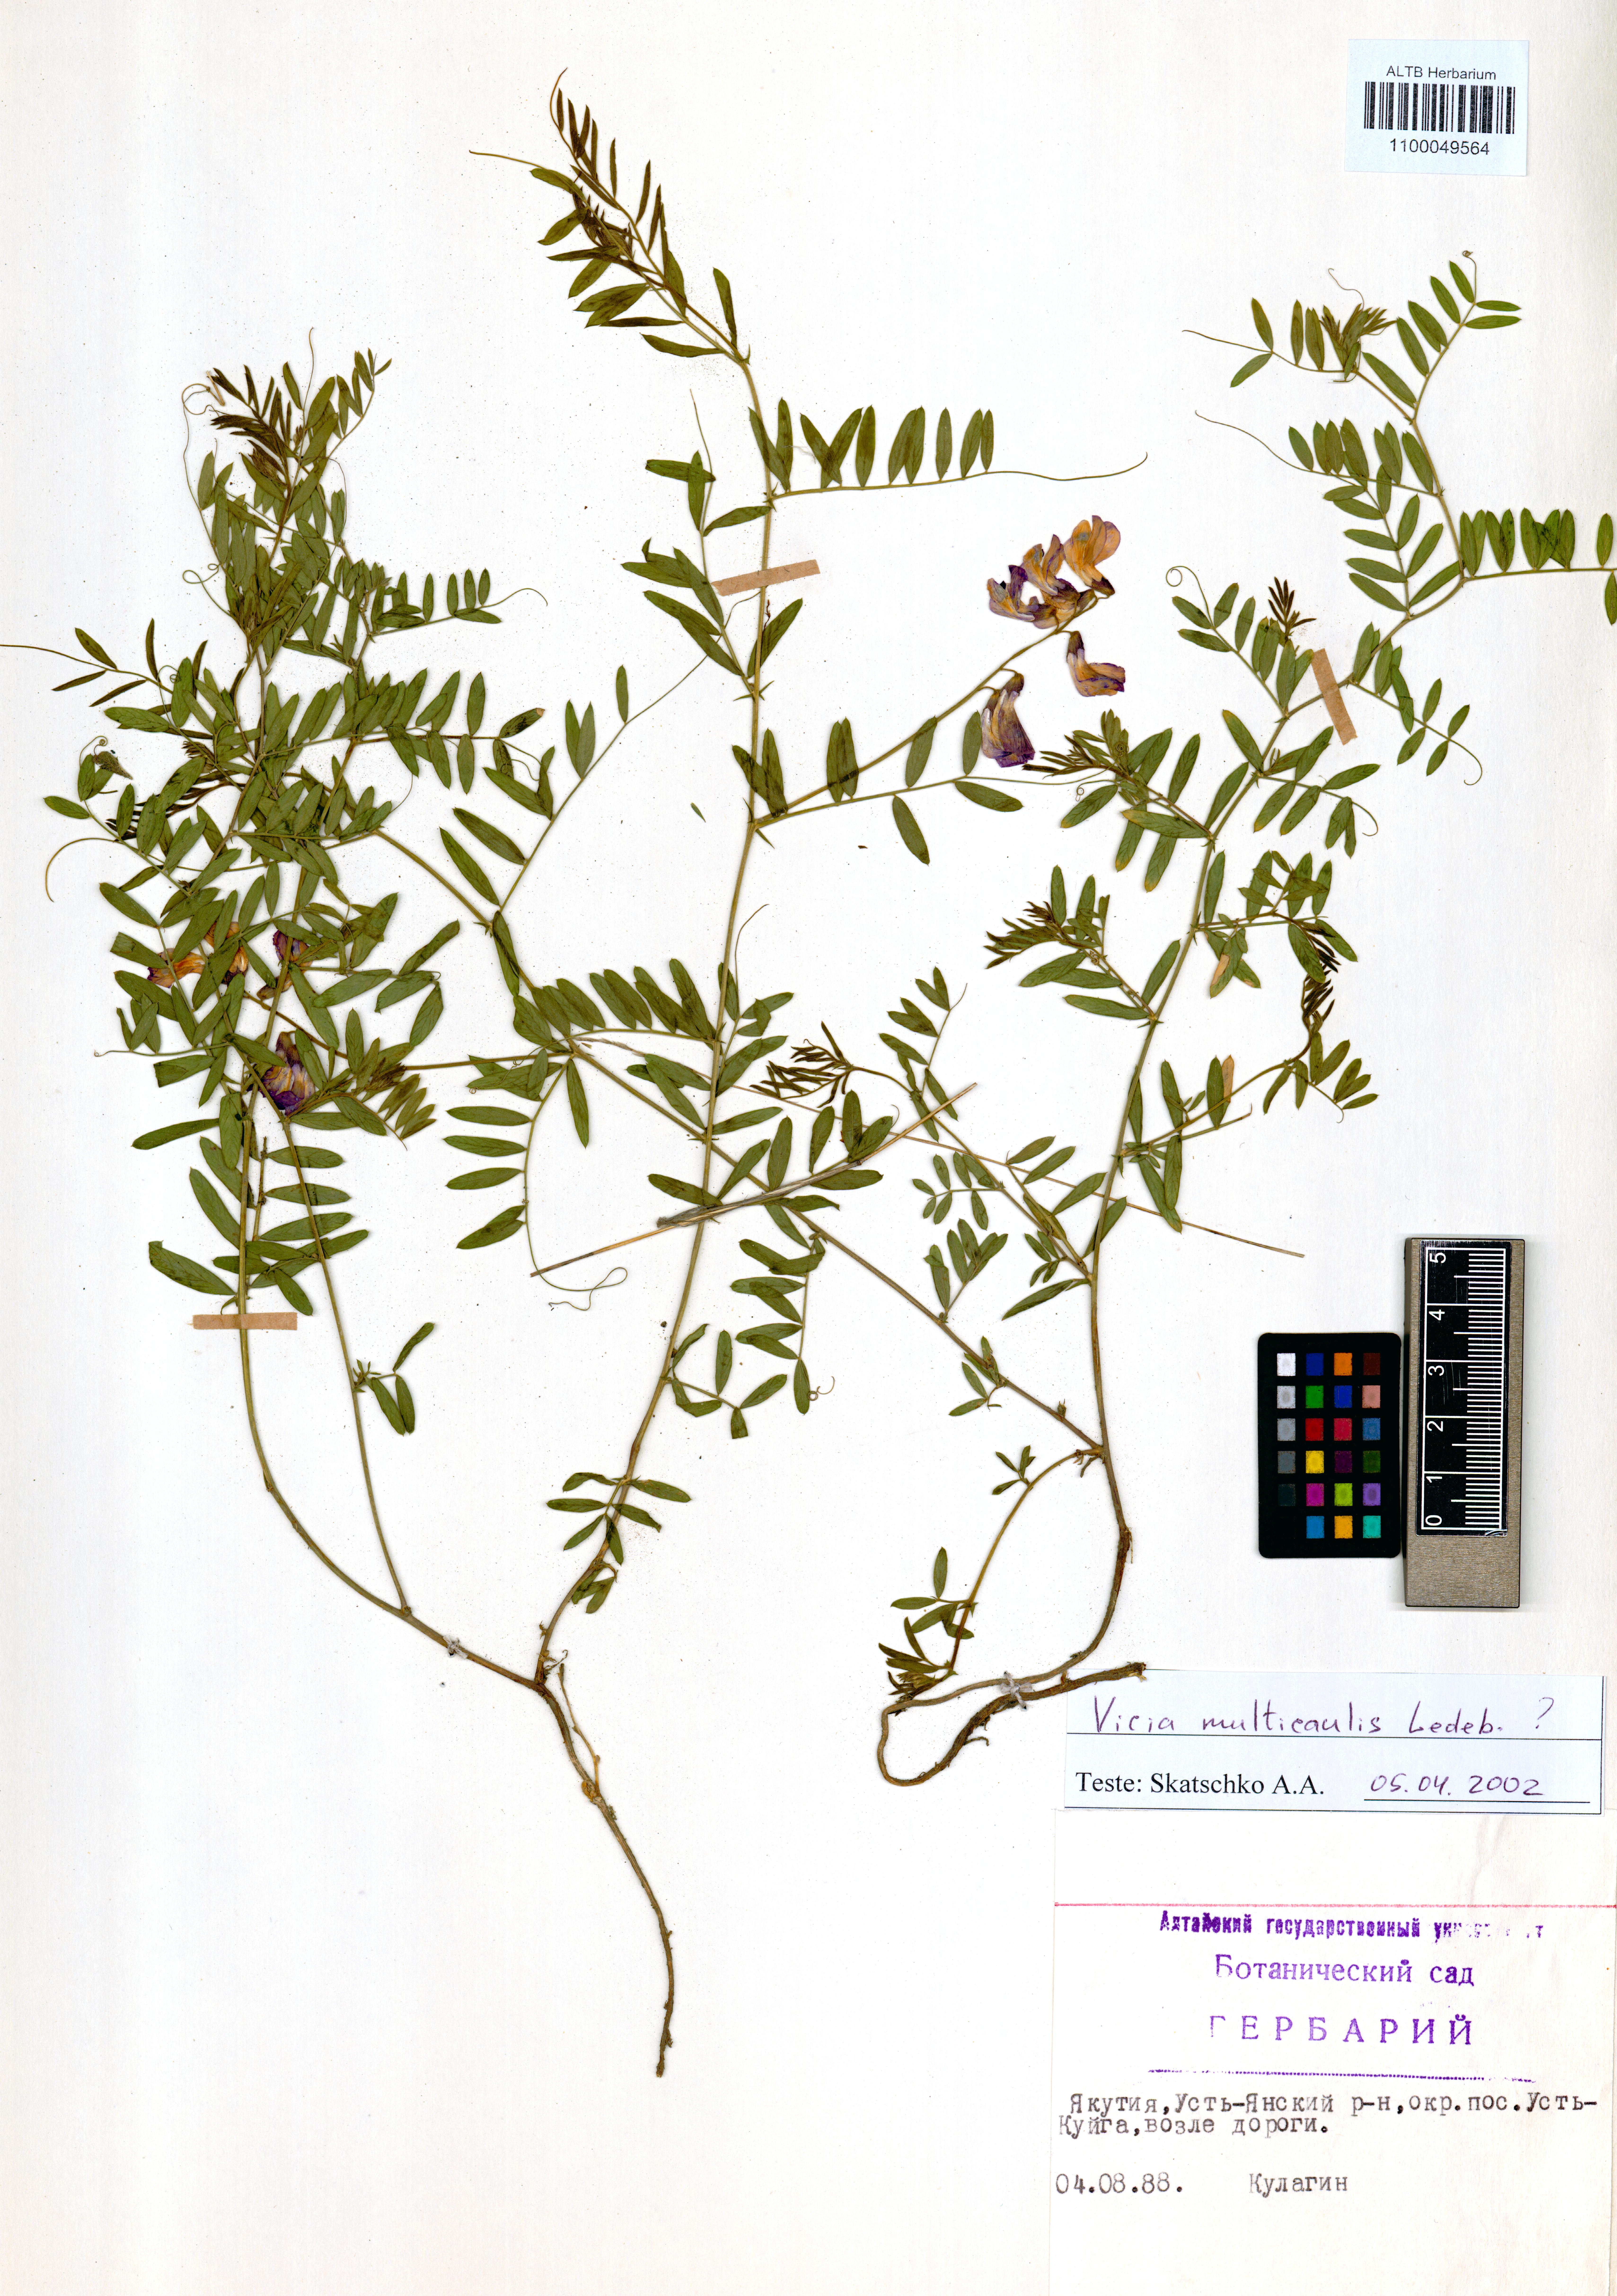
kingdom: Plantae
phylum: Tracheophyta
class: Magnoliopsida
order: Fabales
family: Fabaceae
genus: Vicia
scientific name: Vicia multicaulis
